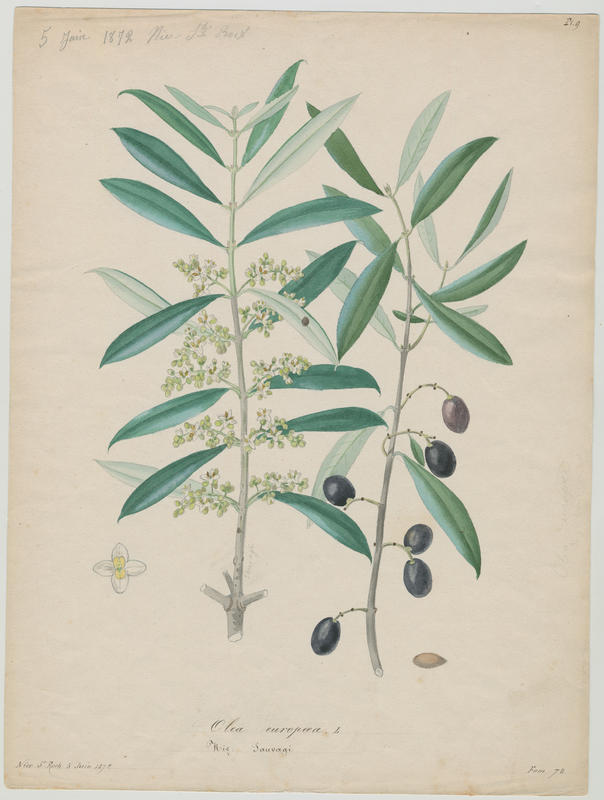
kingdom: Plantae
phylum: Tracheophyta
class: Magnoliopsida
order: Lamiales
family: Oleaceae
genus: Olea
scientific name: Olea europaea
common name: Olive
